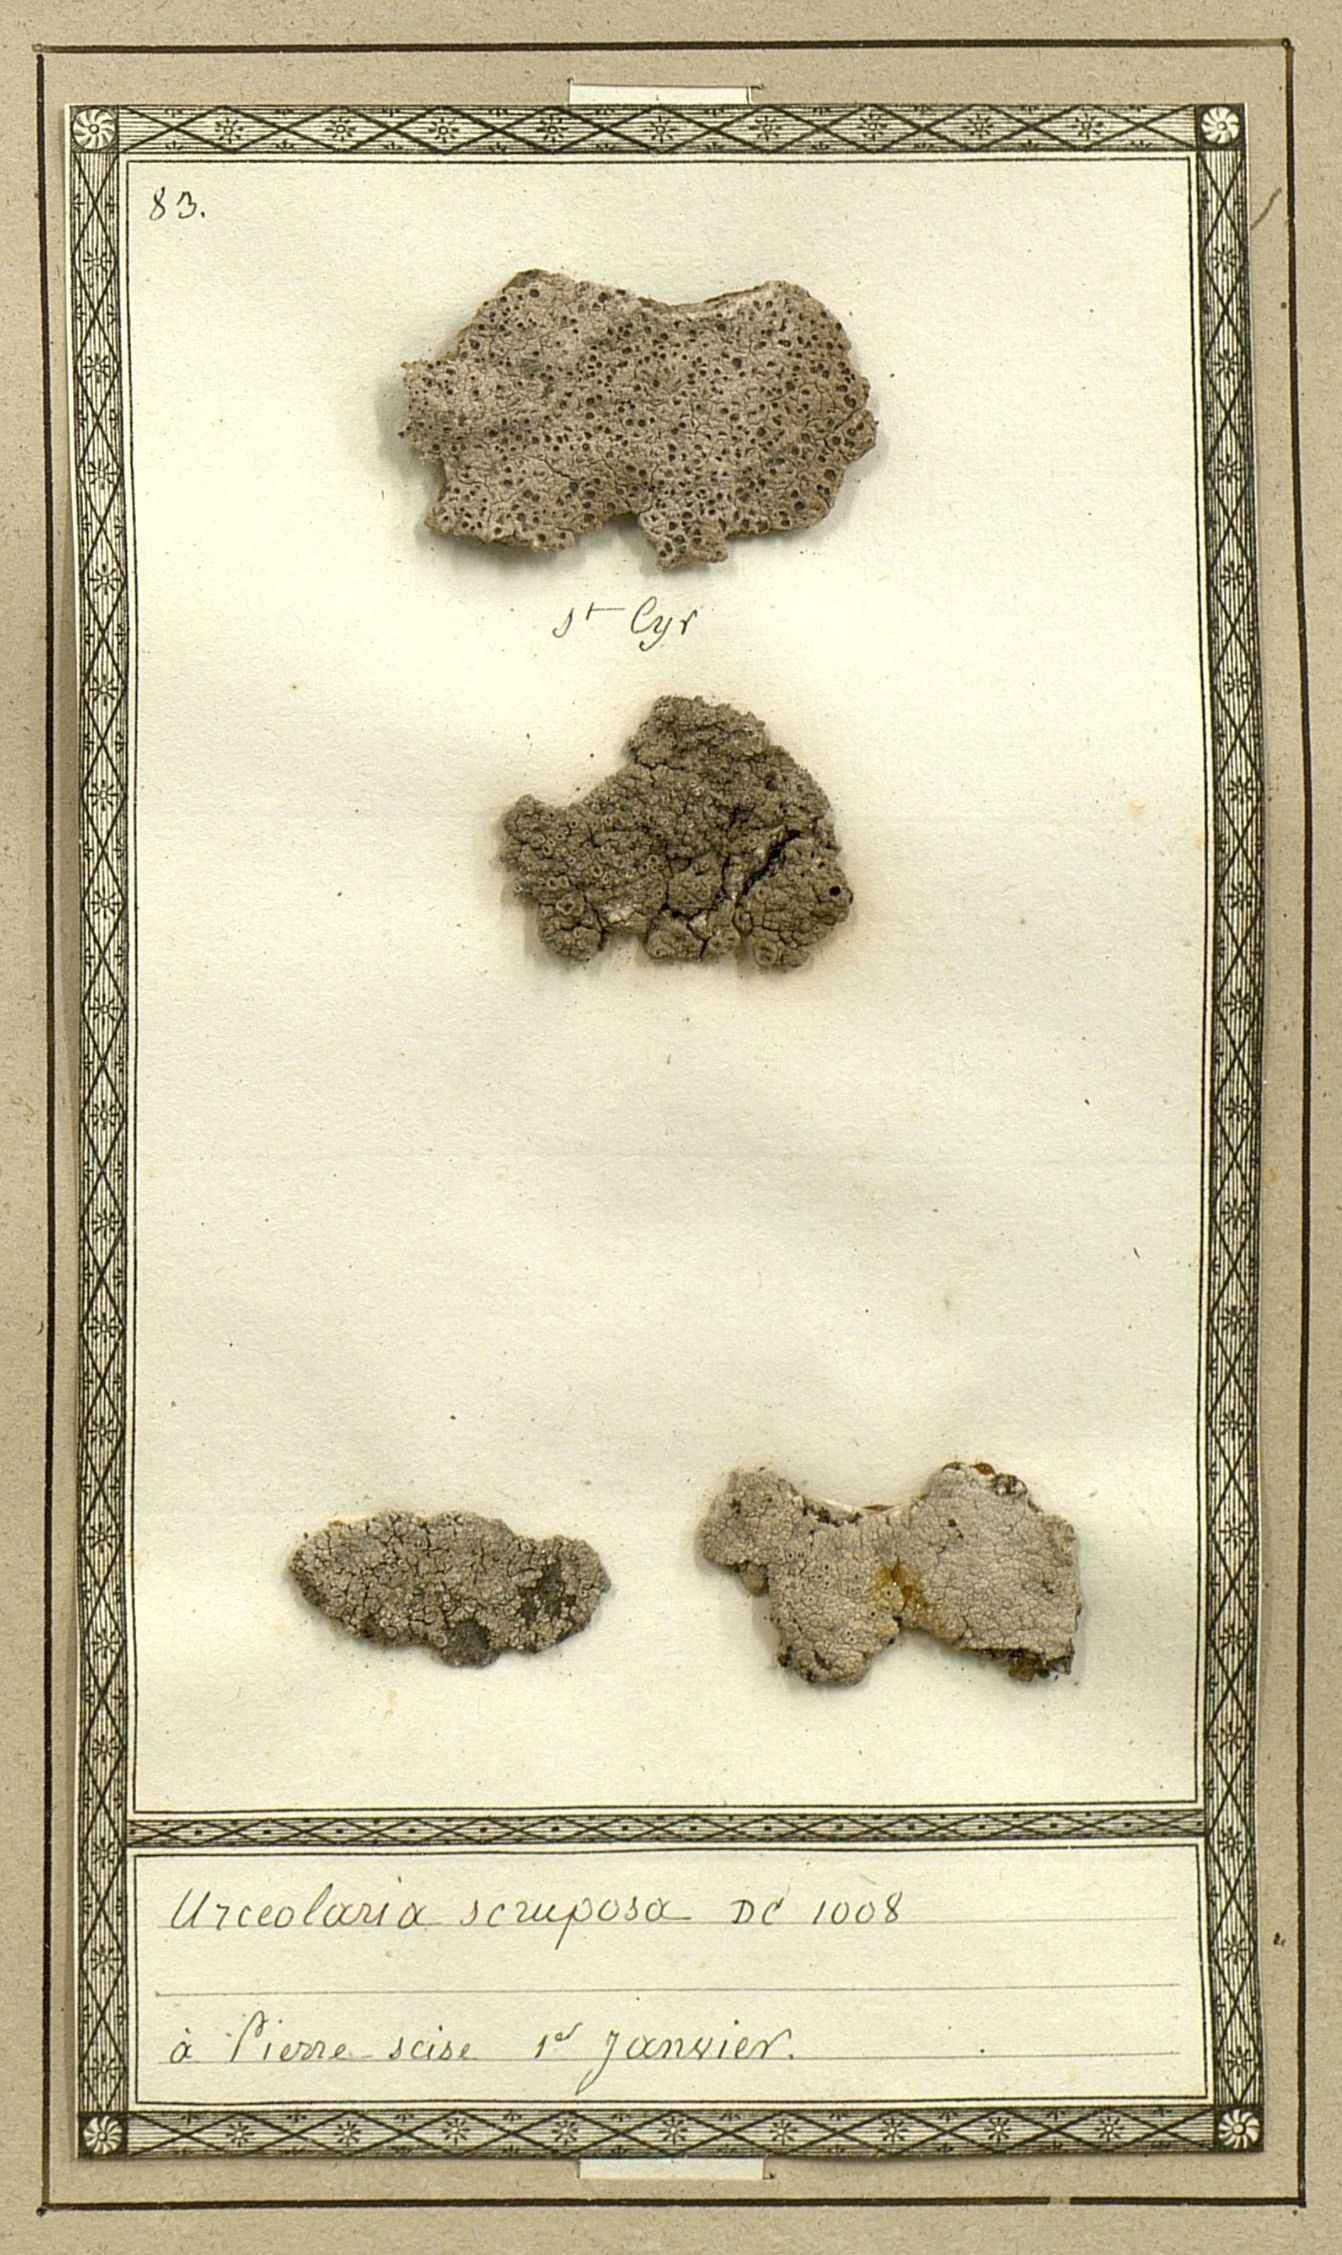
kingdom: Fungi
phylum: Ascomycota
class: Lecanoromycetes
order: Ostropales
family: Graphidaceae
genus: Diploschistes
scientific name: Diploschistes scruposus
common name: Crater lichen
